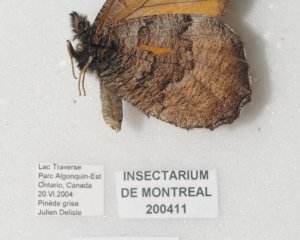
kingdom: Animalia
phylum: Arthropoda
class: Insecta
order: Lepidoptera
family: Nymphalidae
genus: Oeneis
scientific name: Oeneis macounii
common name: Macoun's Arctic
